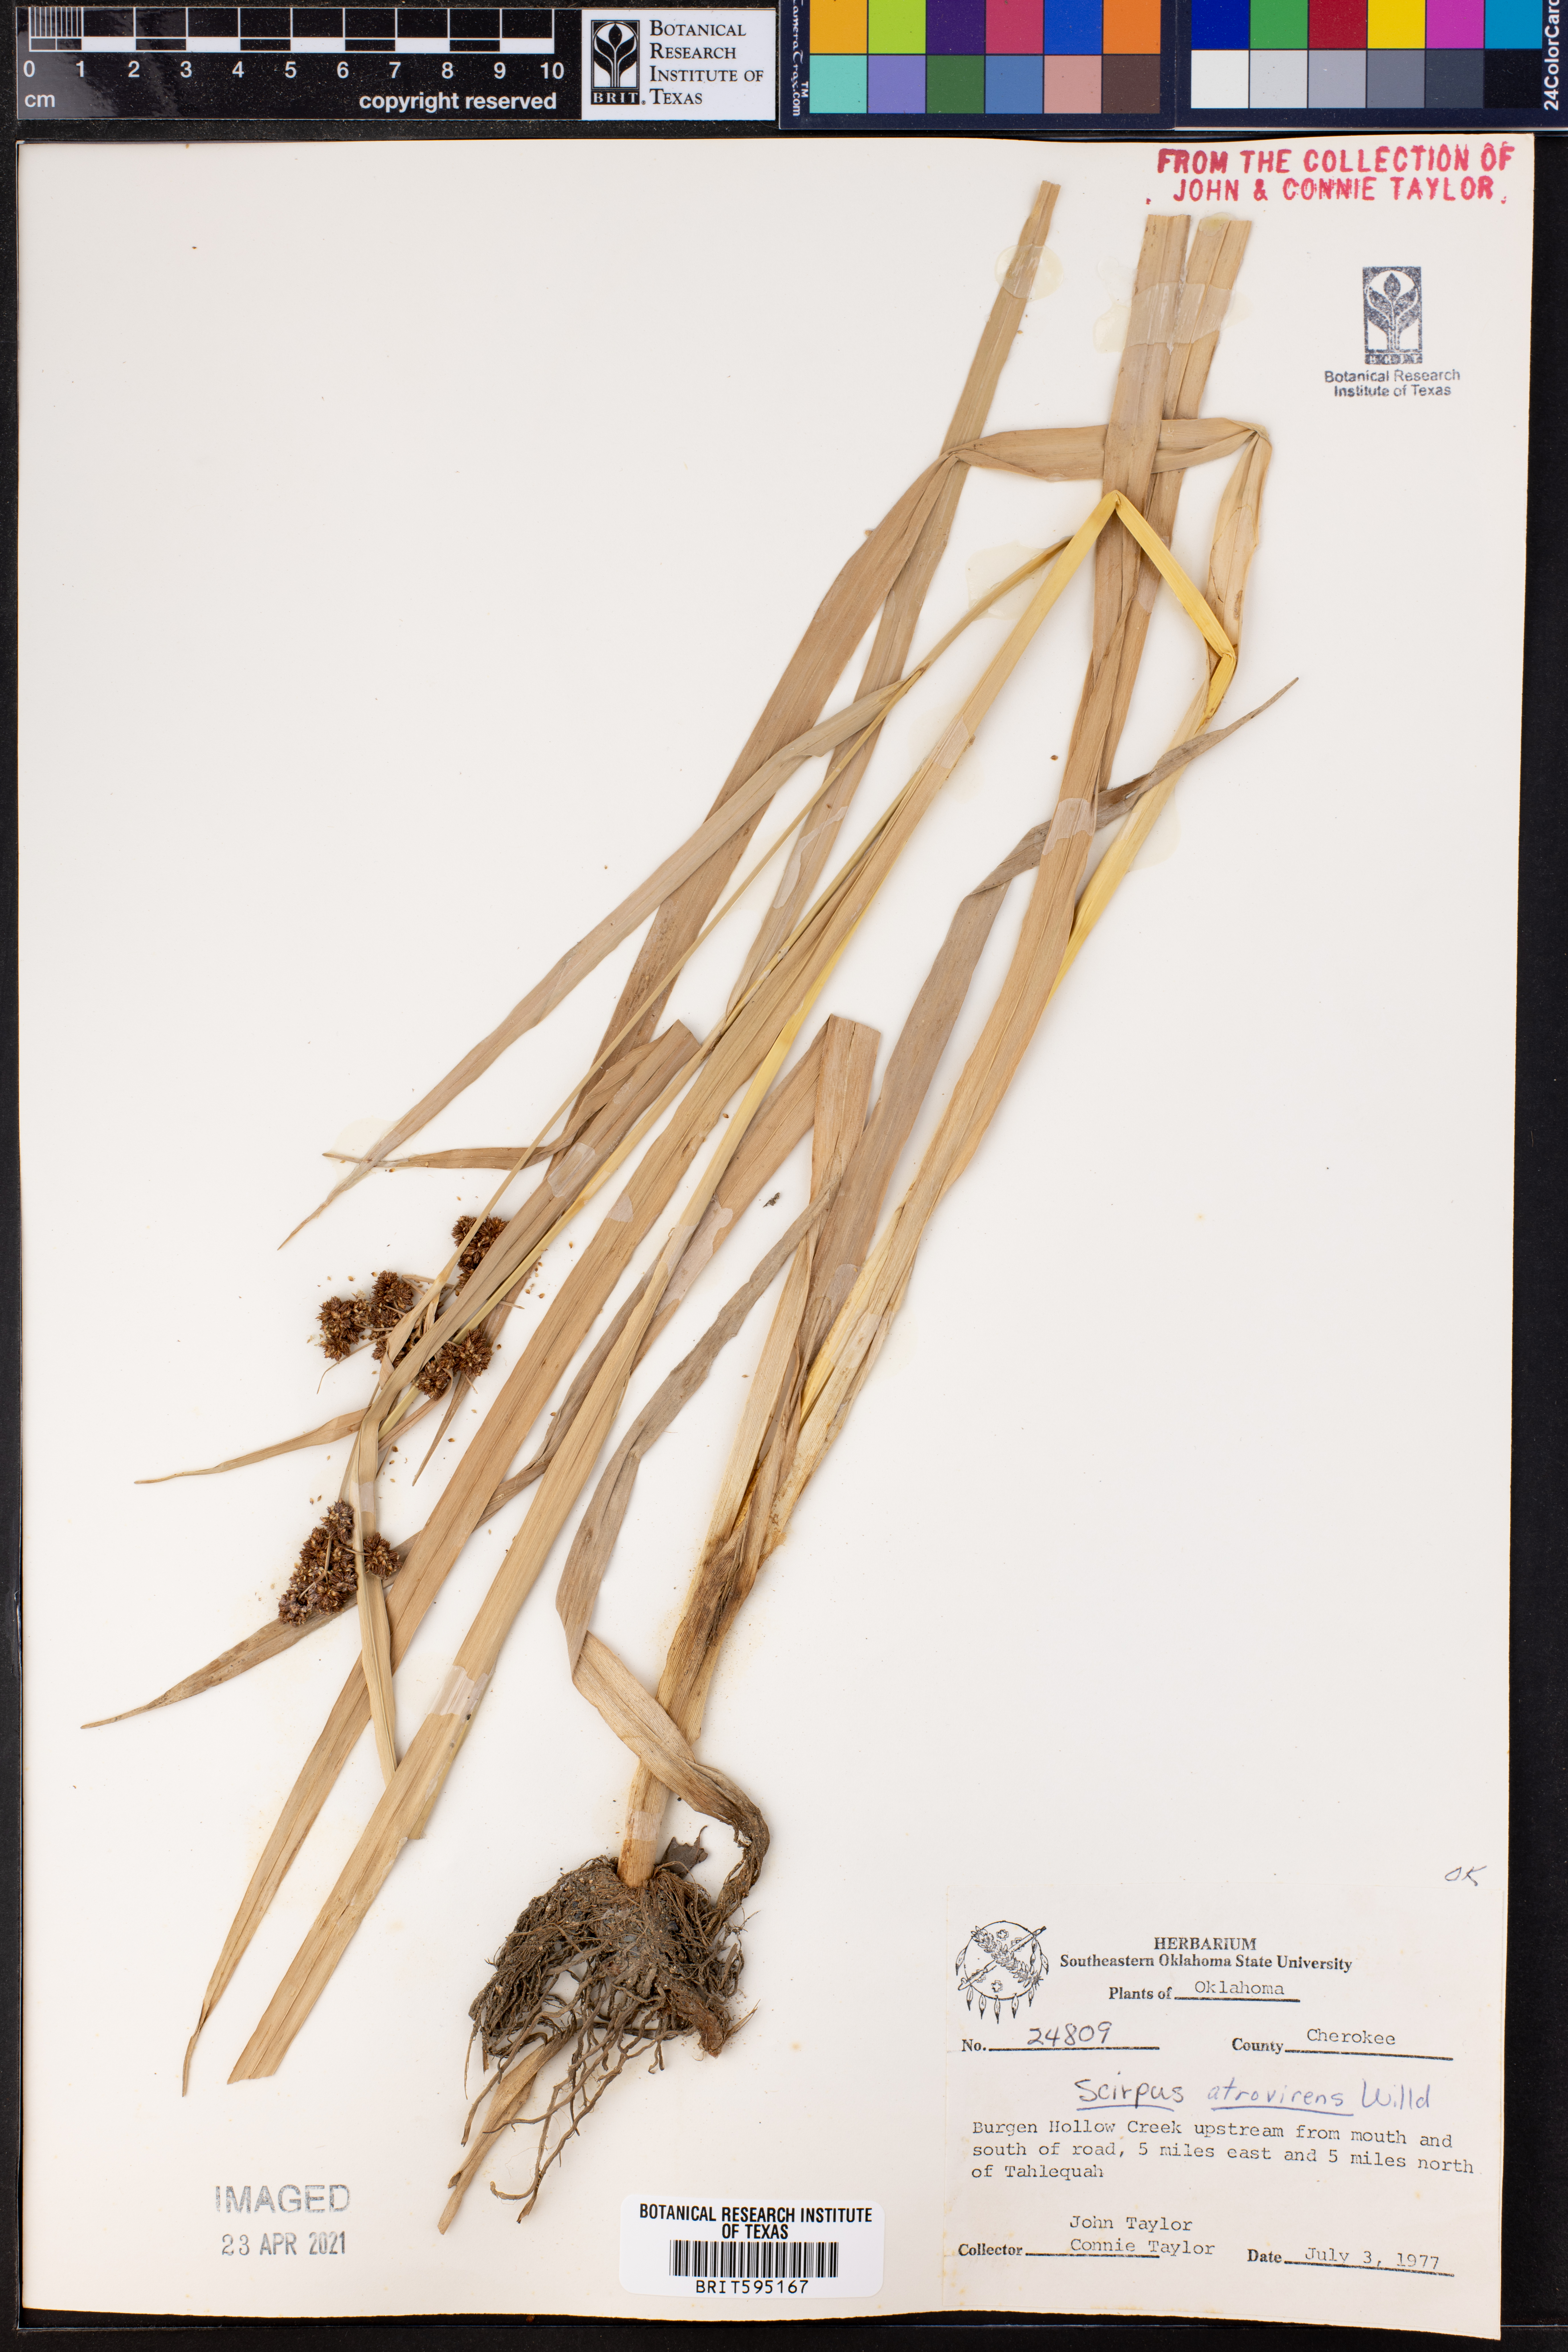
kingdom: Plantae
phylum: Tracheophyta
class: Liliopsida
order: Poales
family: Cyperaceae
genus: Scirpus
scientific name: Scirpus atrovirens
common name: Black bulrush
